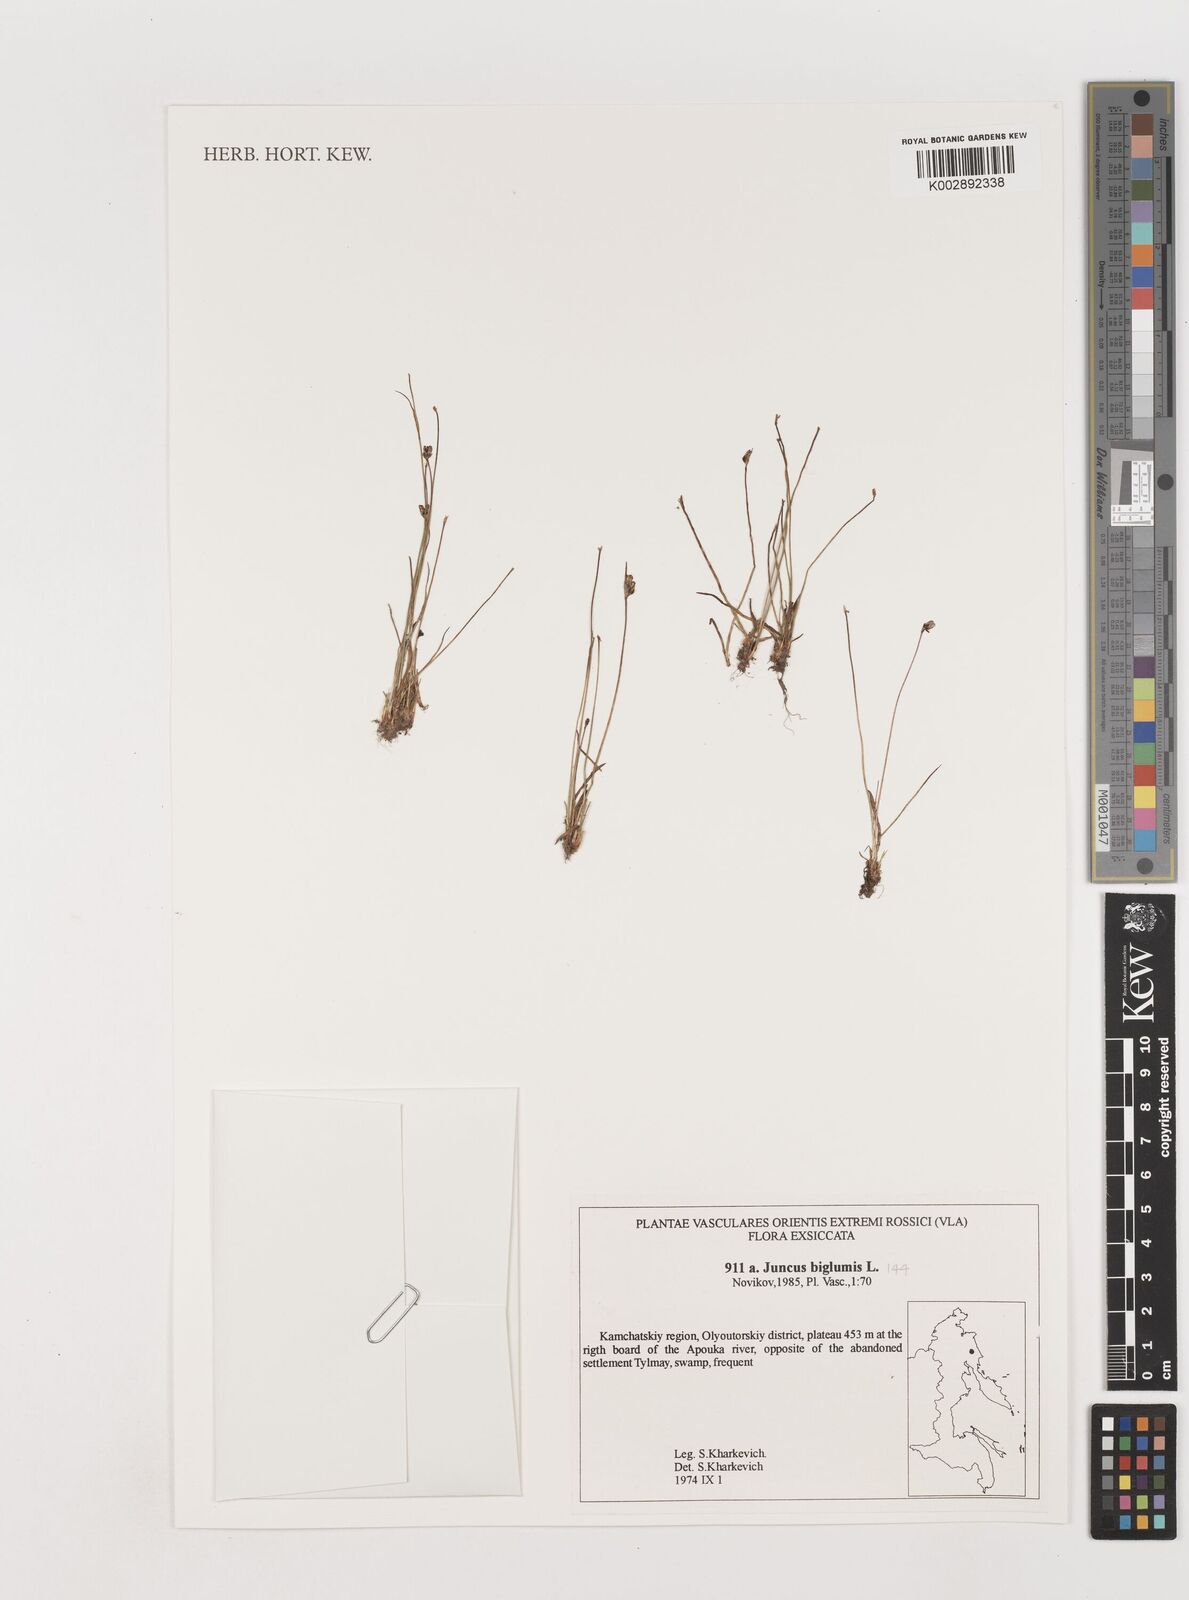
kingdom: Plantae
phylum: Tracheophyta
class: Liliopsida
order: Poales
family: Juncaceae
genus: Juncus
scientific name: Juncus biglumis
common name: Two-flowered rush
